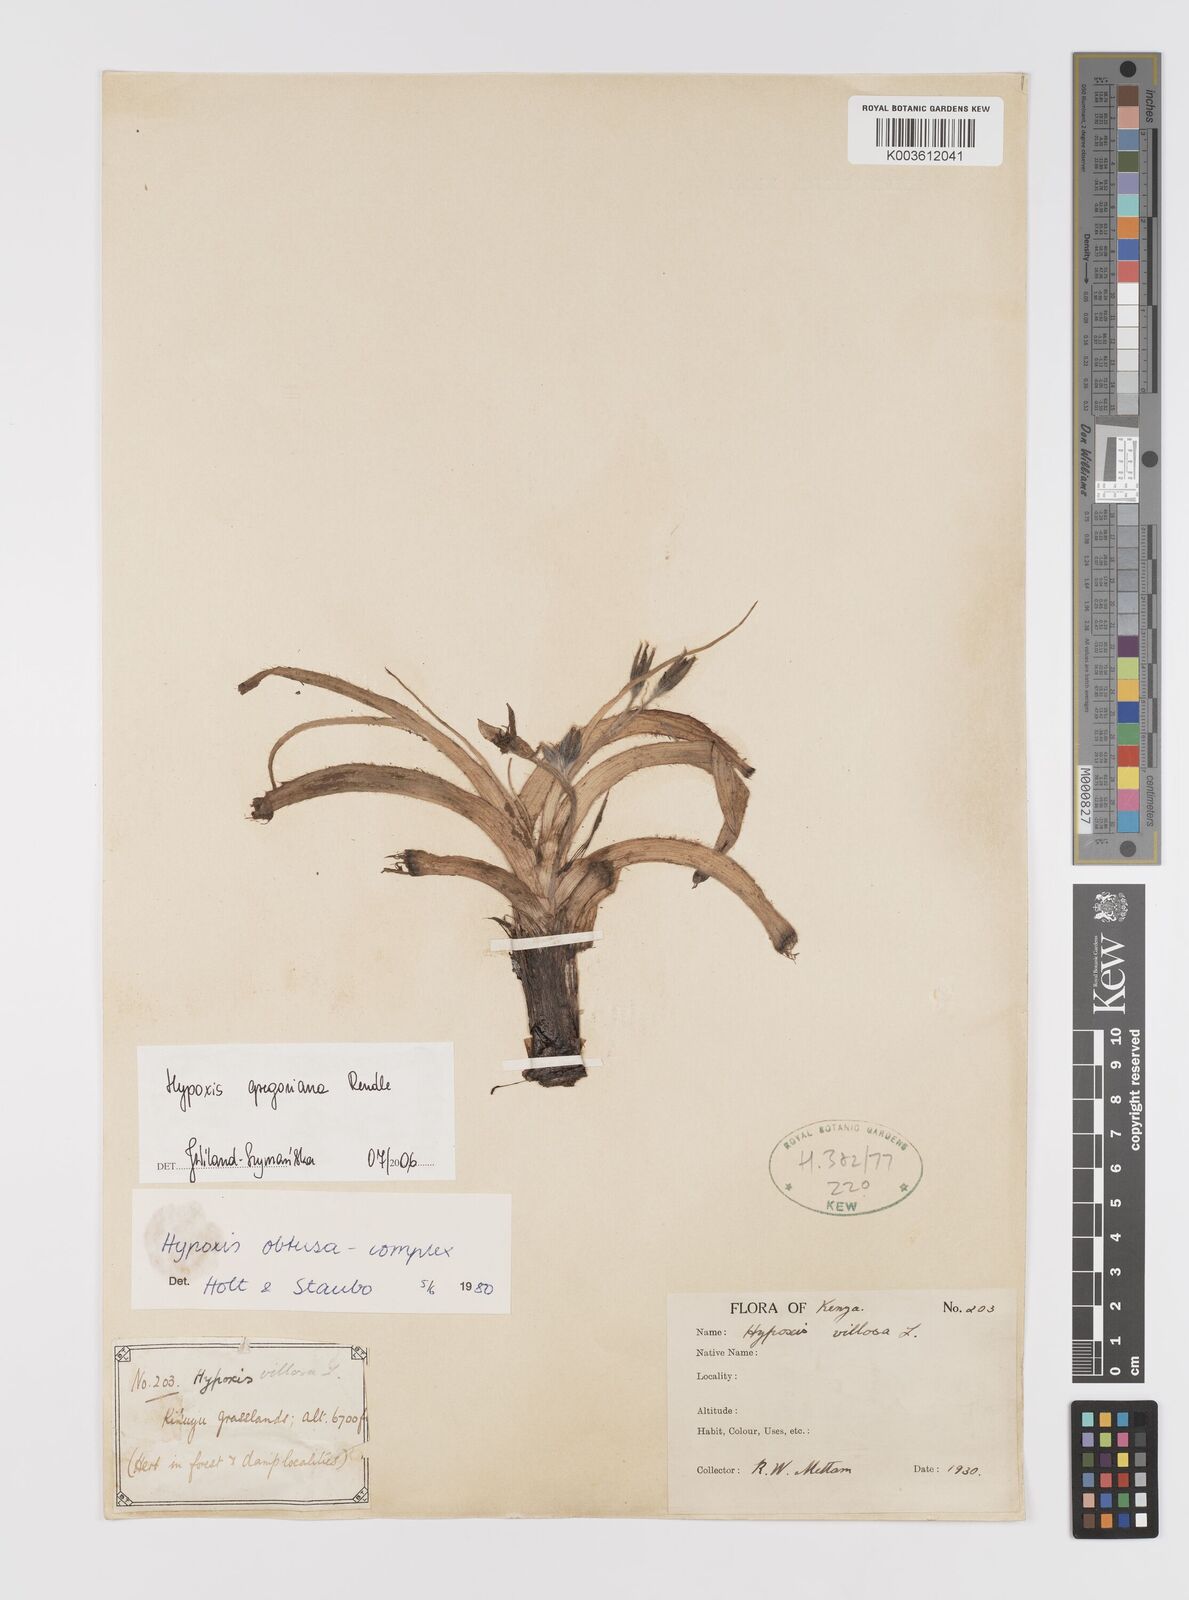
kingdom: Plantae
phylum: Tracheophyta
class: Liliopsida
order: Asparagales
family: Hypoxidaceae
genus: Hypoxis
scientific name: Hypoxis gregoriana
